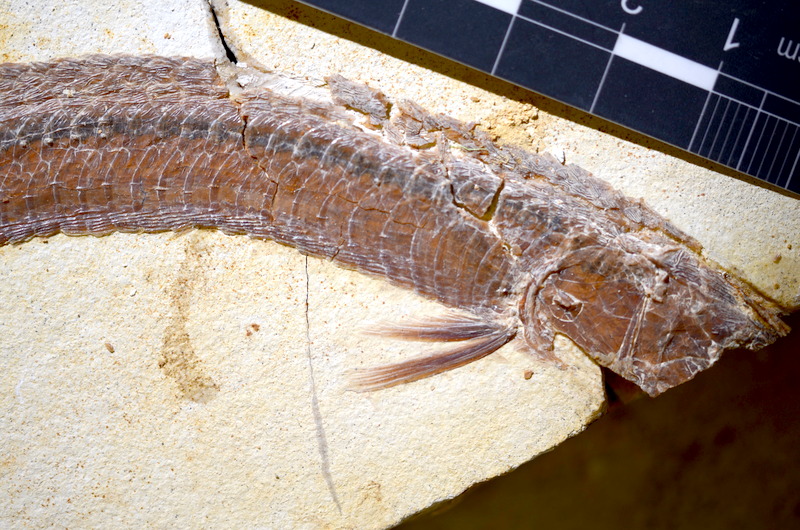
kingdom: Animalia
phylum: Chordata
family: Aspidorhynchidae
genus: Belonostomus
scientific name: Belonostomus kochii
